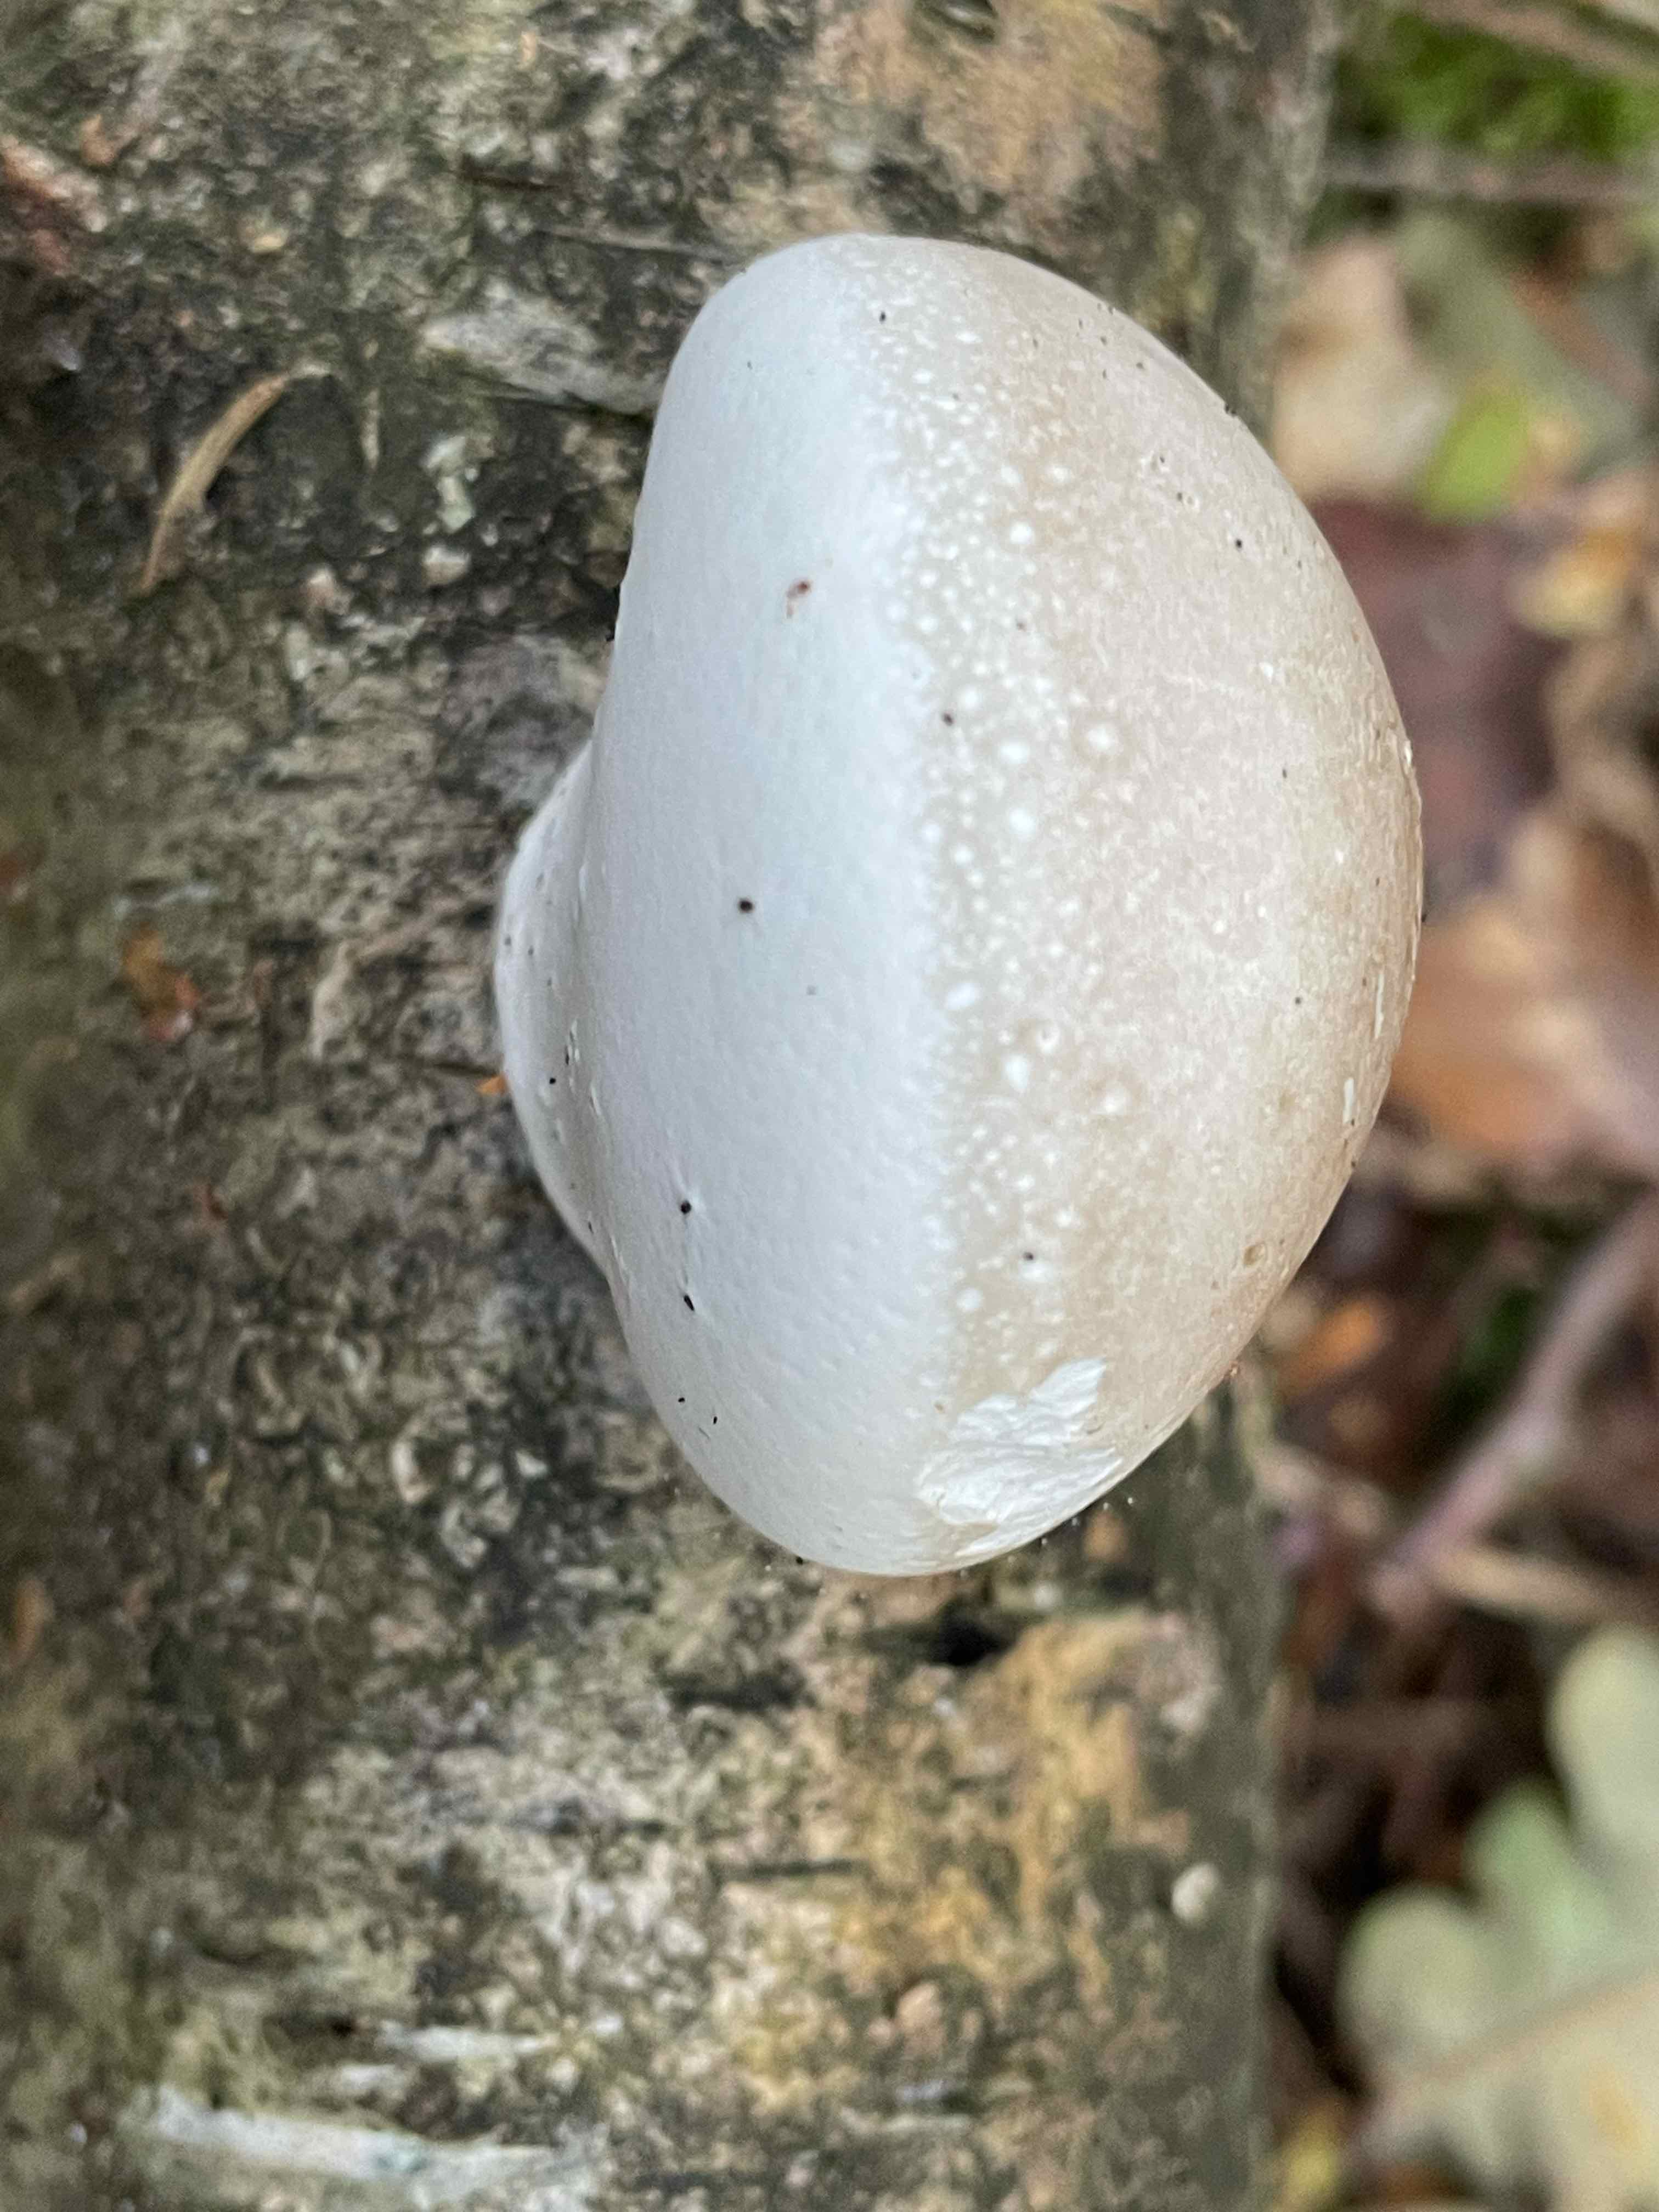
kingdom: Fungi
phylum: Basidiomycota
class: Agaricomycetes
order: Polyporales
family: Fomitopsidaceae
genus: Fomitopsis
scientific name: Fomitopsis betulina
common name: birkeporesvamp
